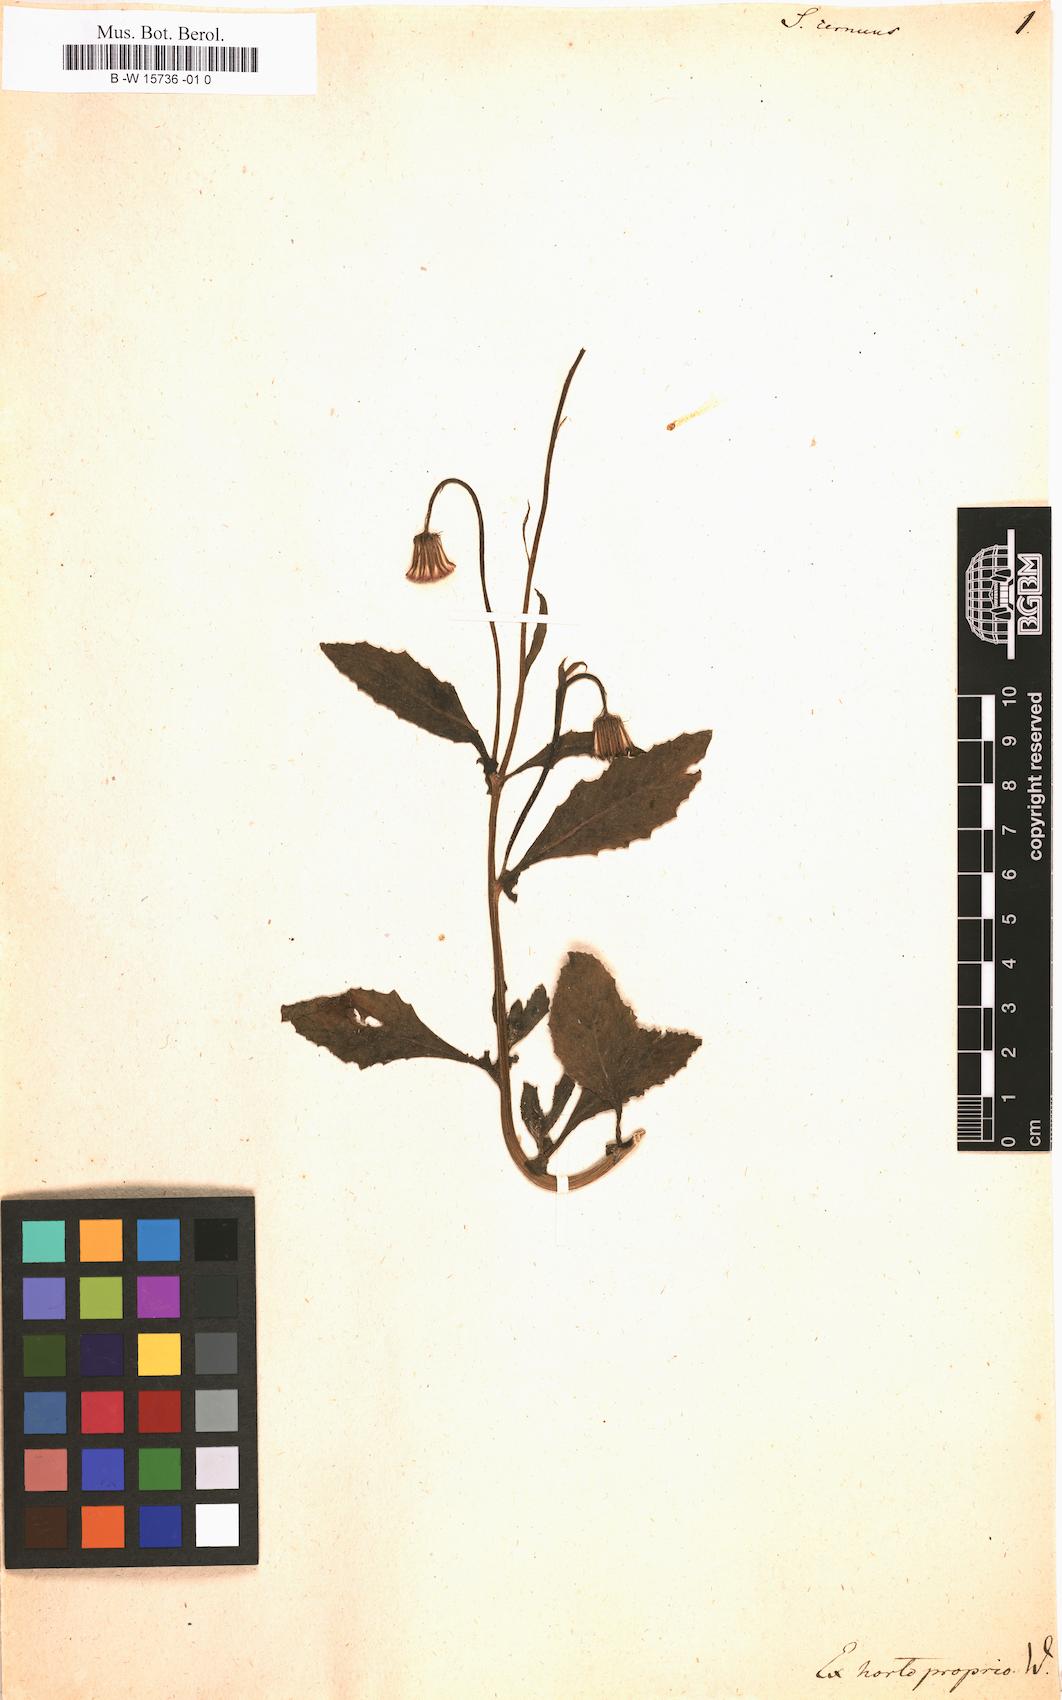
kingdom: Plantae
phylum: Tracheophyta
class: Magnoliopsida
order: Asterales
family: Asteraceae
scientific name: Asteraceae
